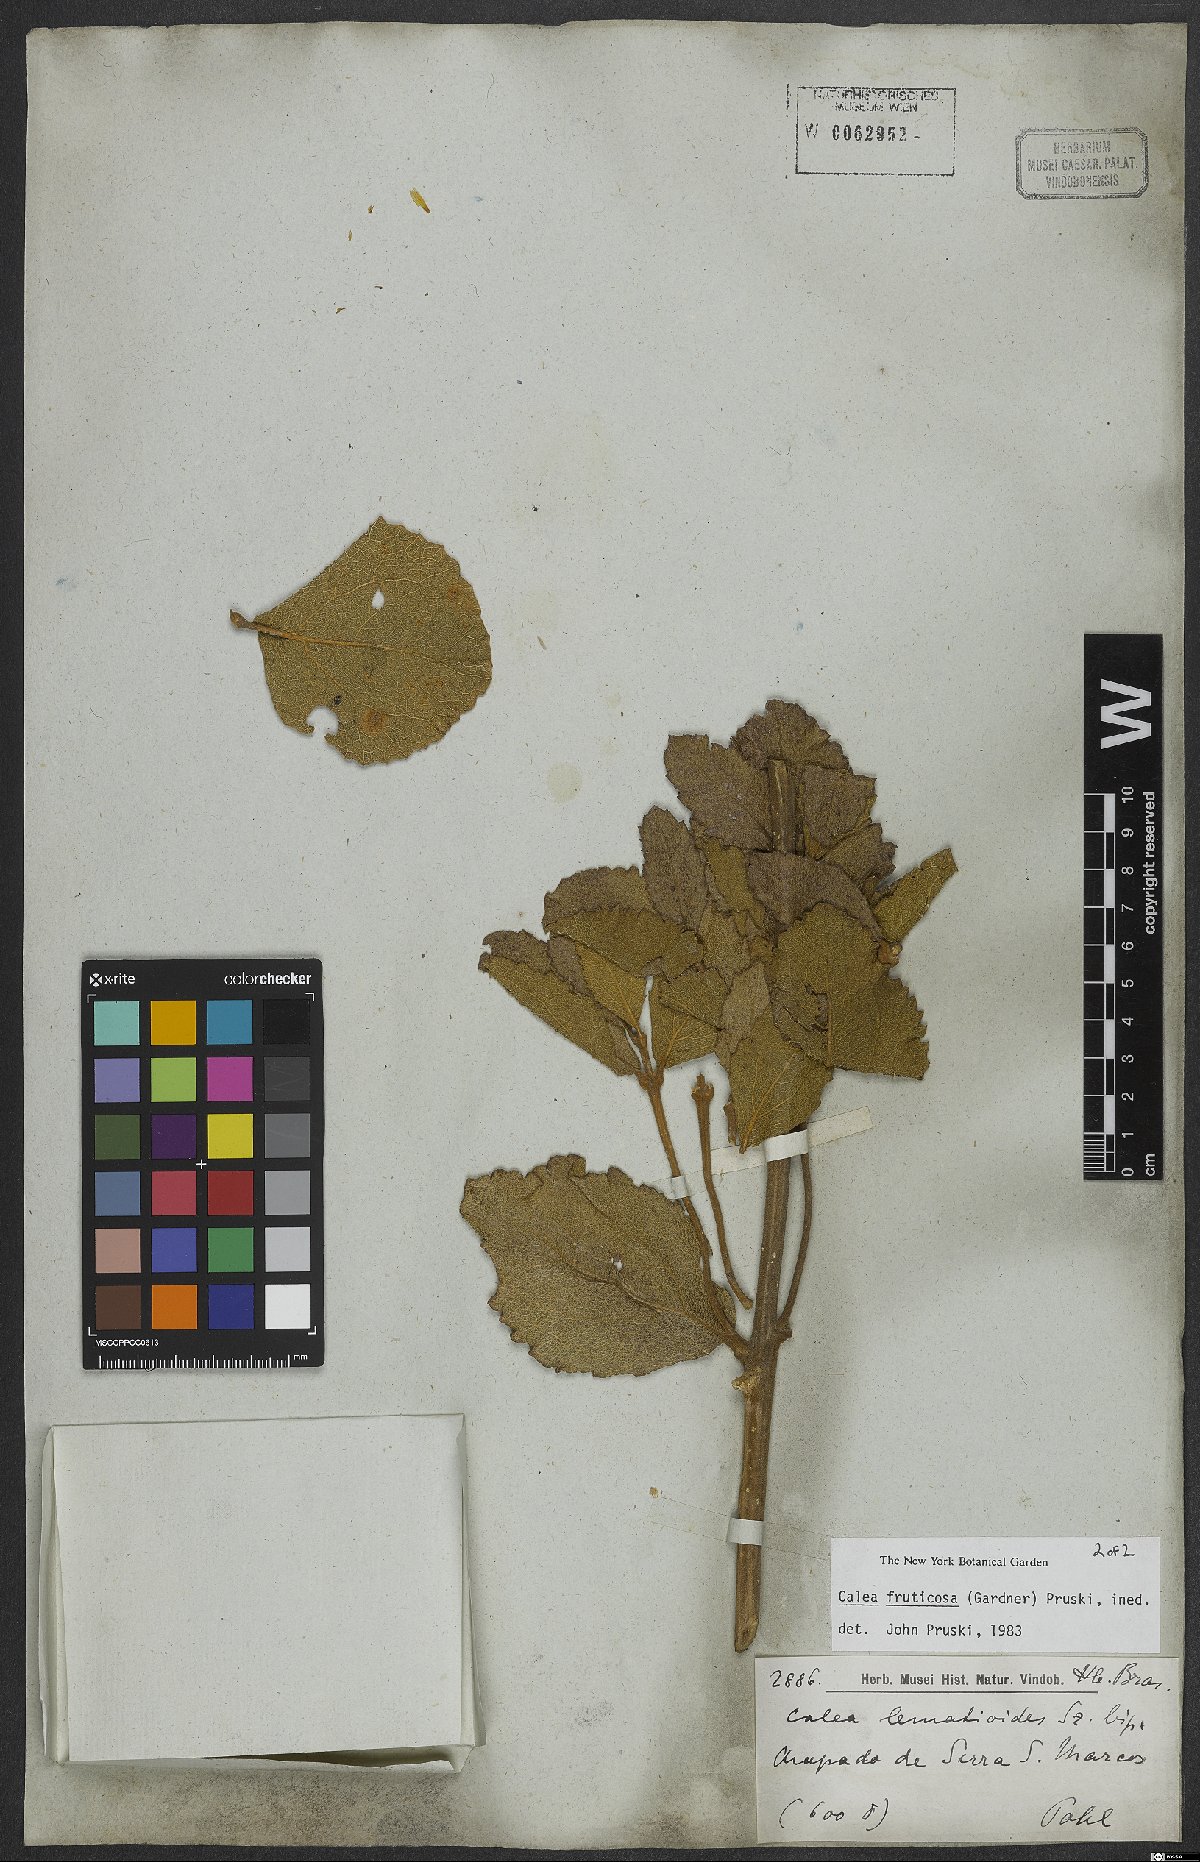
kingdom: Plantae
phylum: Tracheophyta
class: Magnoliopsida
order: Asterales
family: Asteraceae
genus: Calea
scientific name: Calea fruticosa
